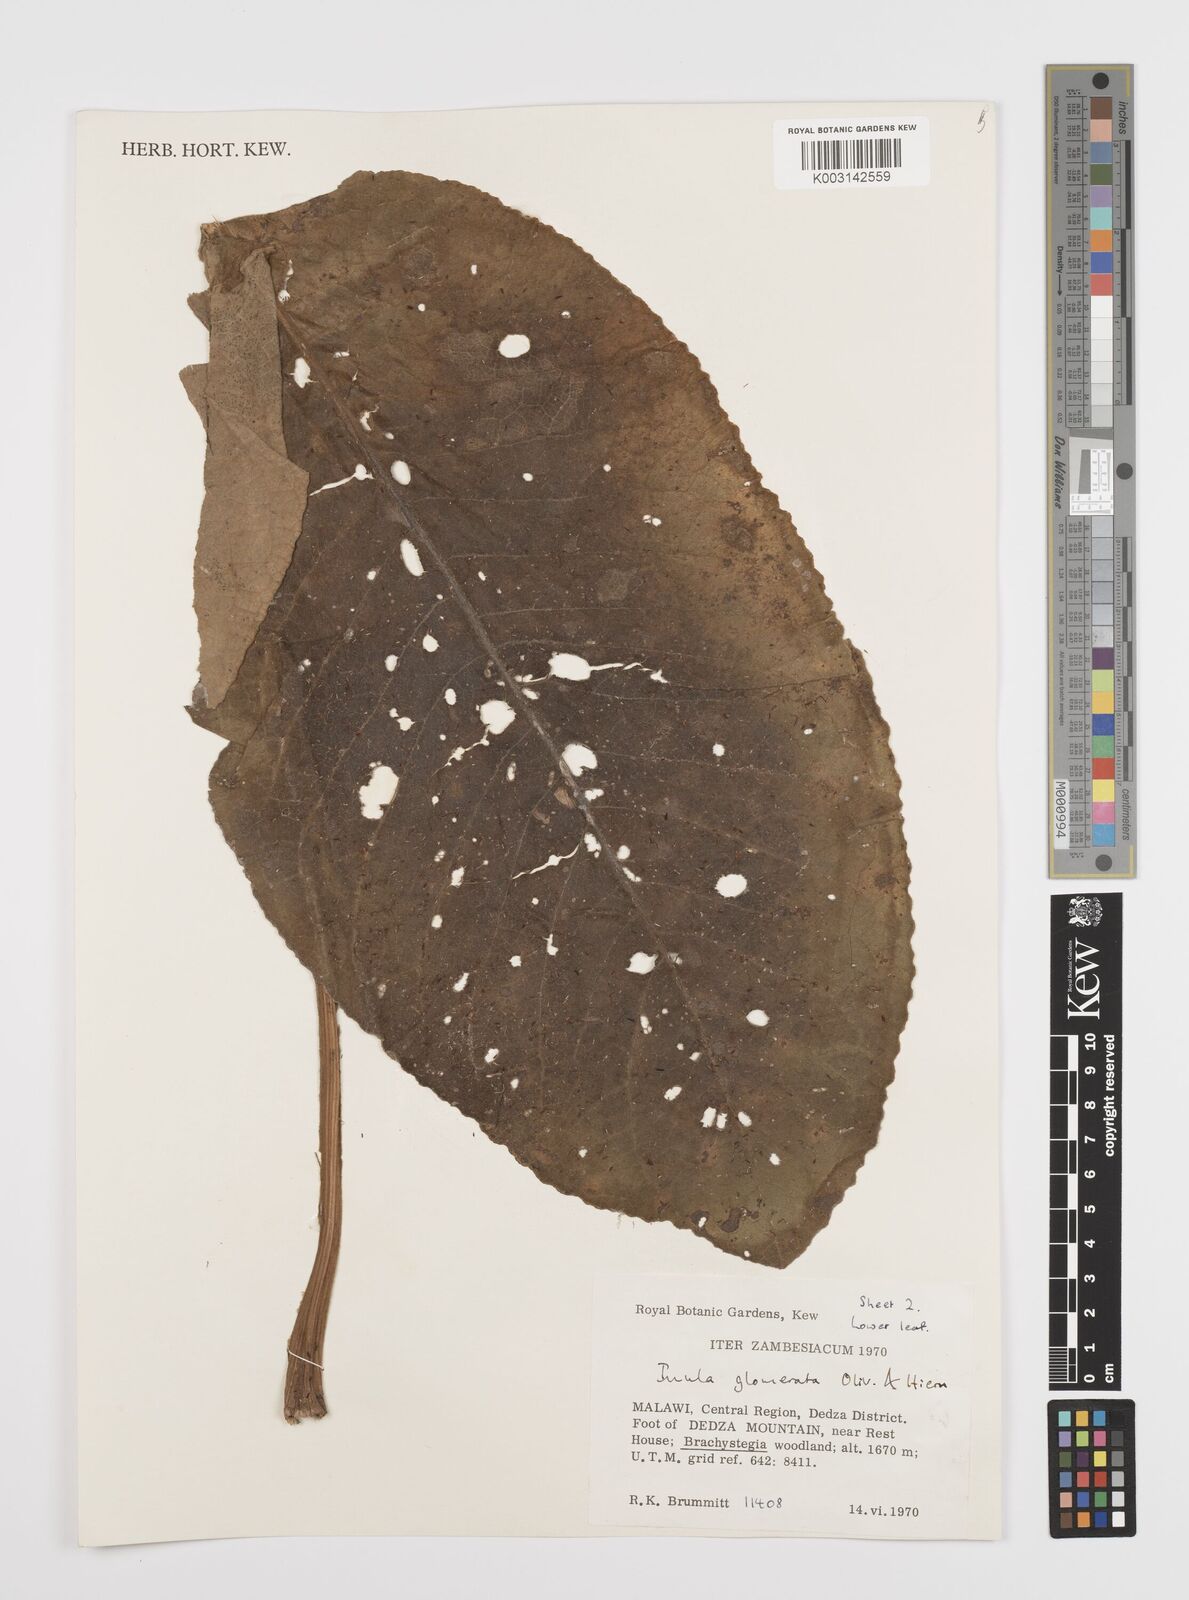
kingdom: Plantae
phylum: Tracheophyta
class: Magnoliopsida
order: Asterales
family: Asteraceae
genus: Inula
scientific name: Inula glomerata
